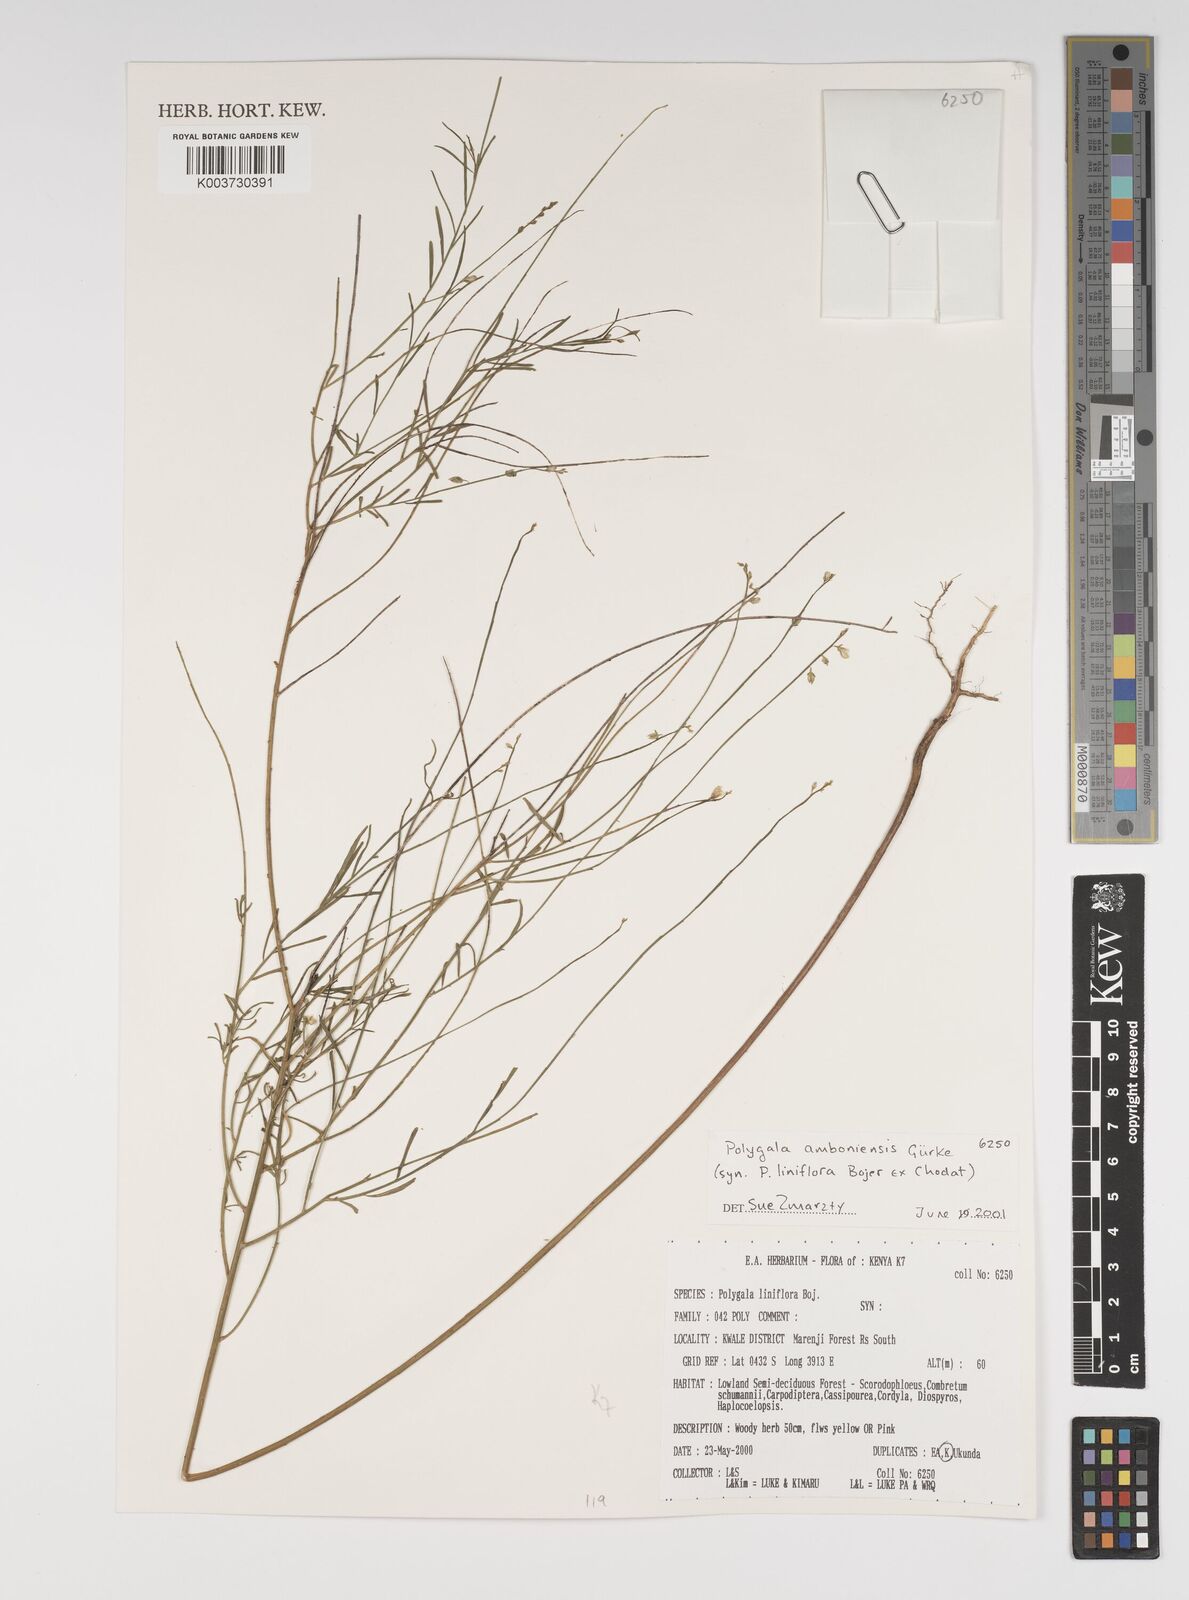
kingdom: Plantae
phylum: Tracheophyta
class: Magnoliopsida
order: Fabales
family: Polygalaceae
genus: Polygala
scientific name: Polygala amboniensis
